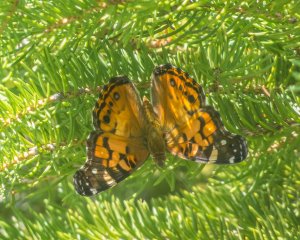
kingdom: Animalia
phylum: Arthropoda
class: Insecta
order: Lepidoptera
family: Nymphalidae
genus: Vanessa
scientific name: Vanessa virginiensis
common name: American Lady
